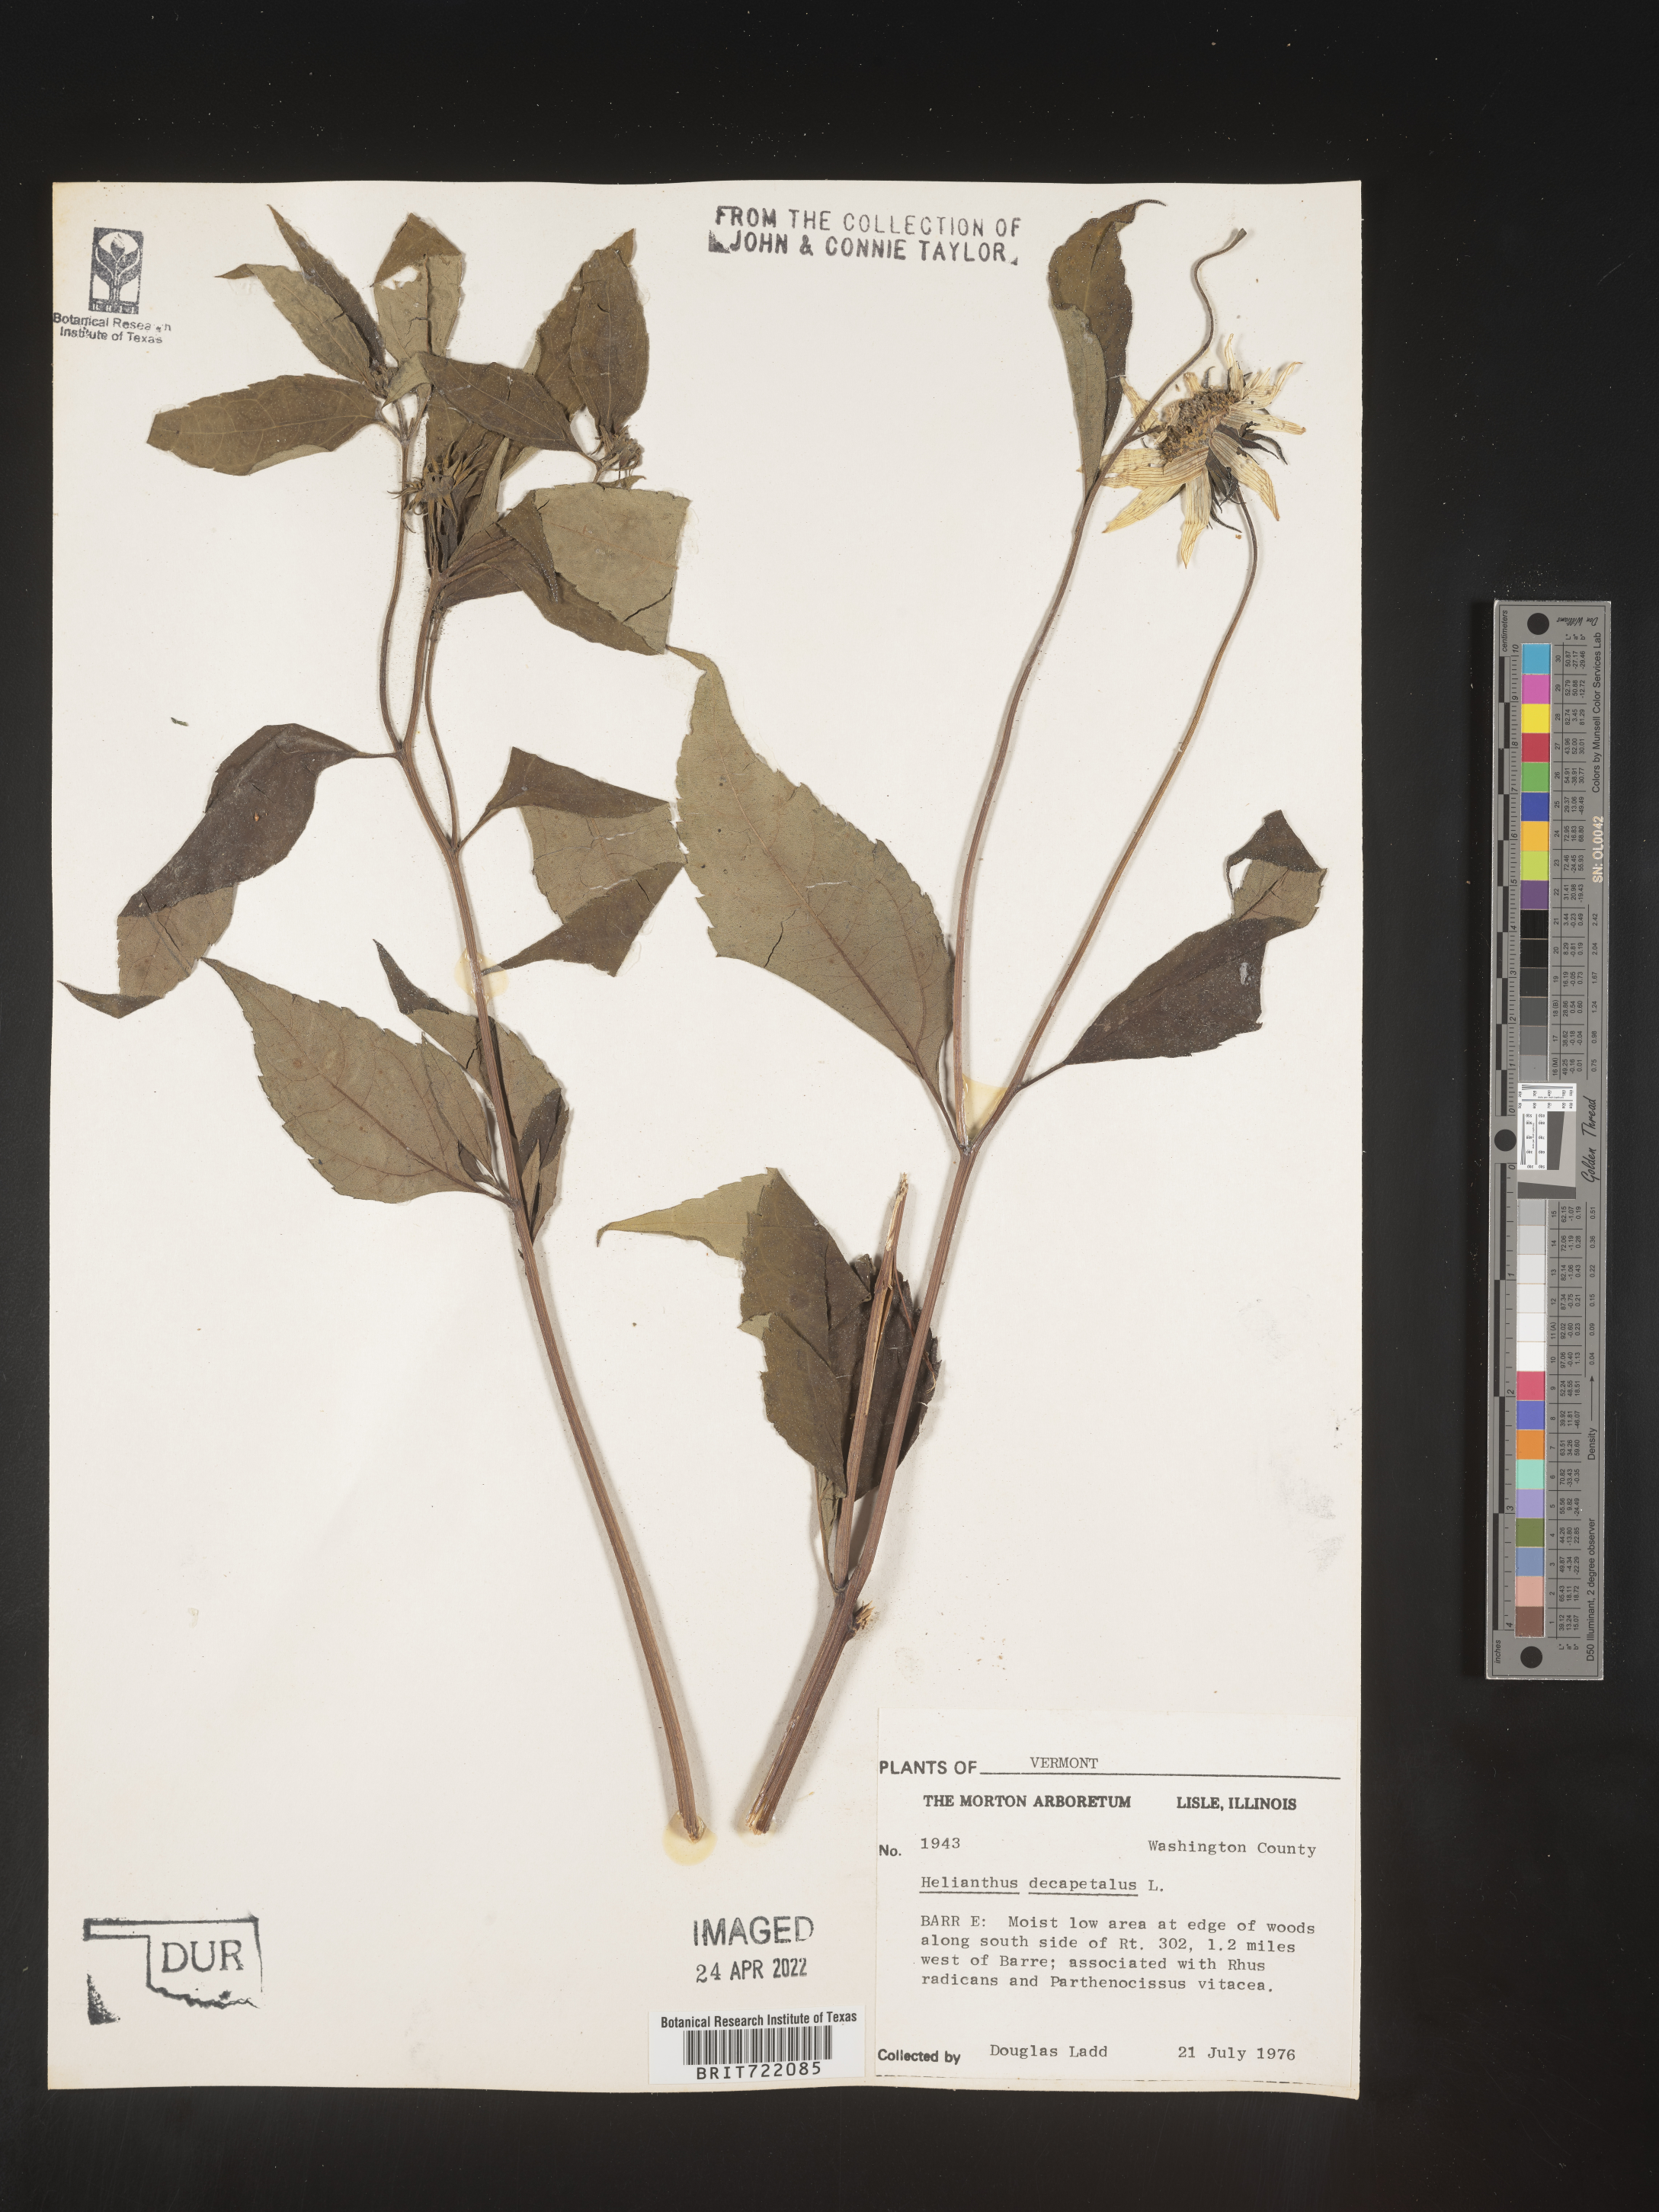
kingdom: Plantae
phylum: Tracheophyta
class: Magnoliopsida
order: Asterales
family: Asteraceae
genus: Helianthus
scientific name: Helianthus decapetalus
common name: Thin-leaved sunflower
